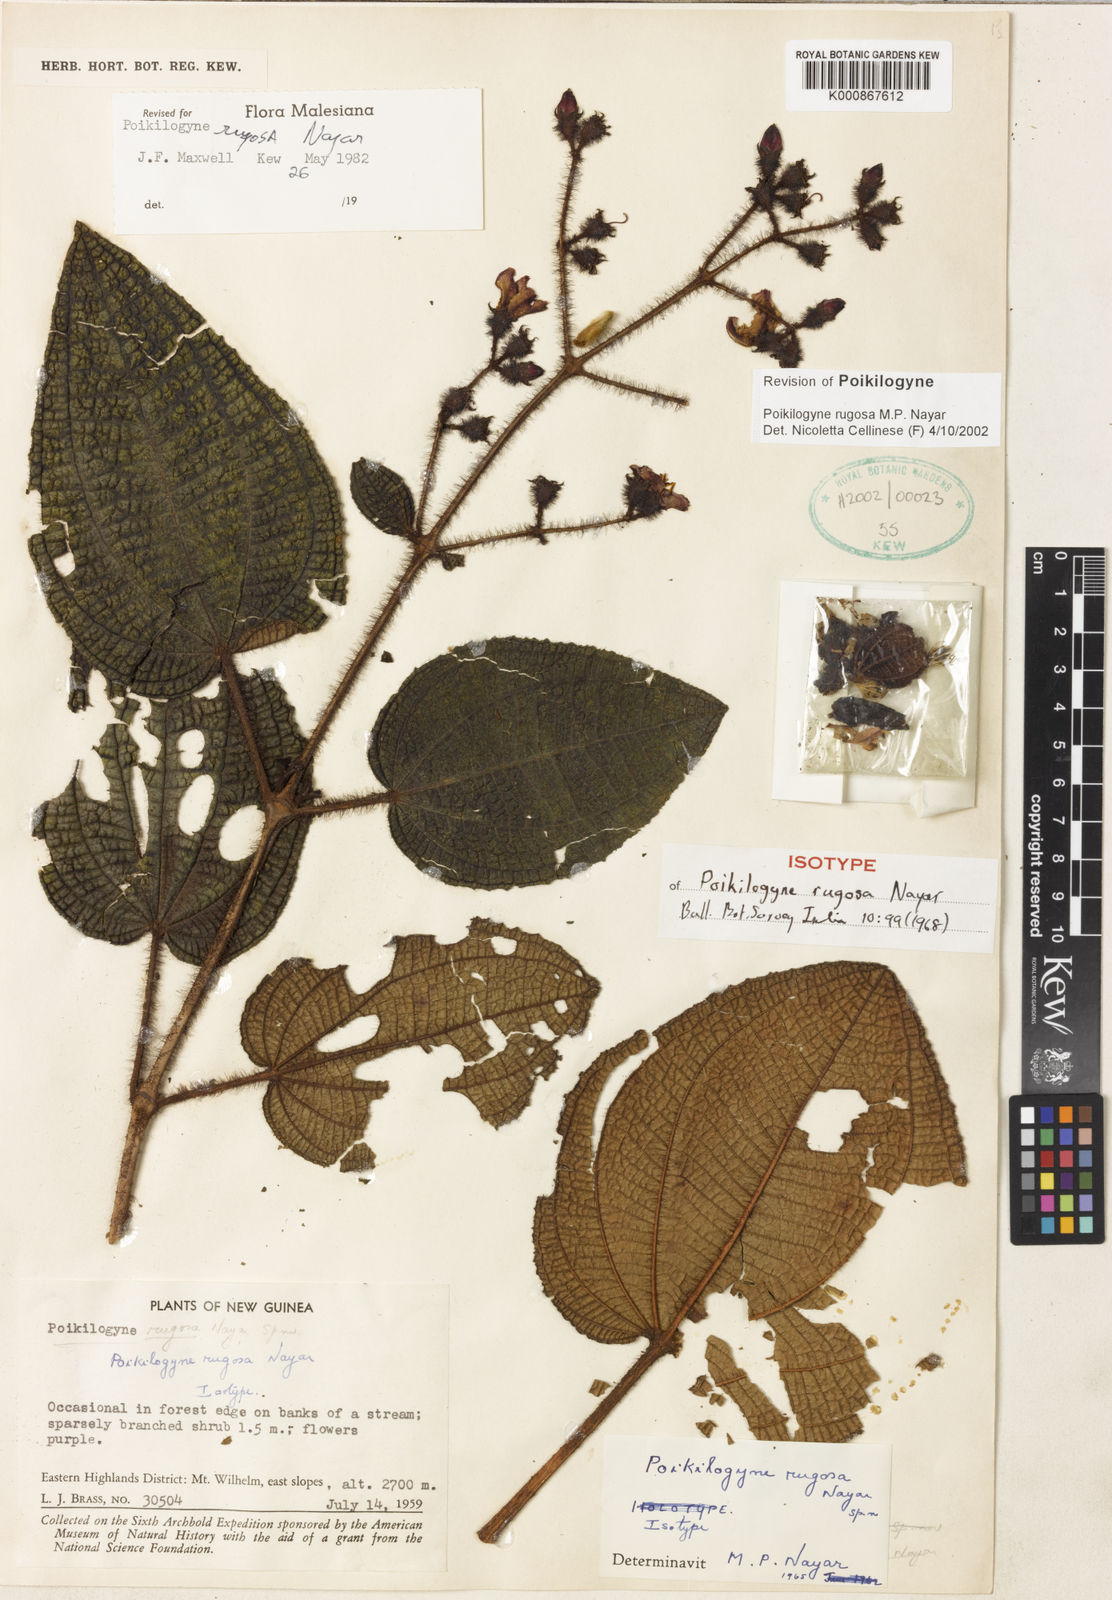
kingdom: Plantae
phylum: Tracheophyta
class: Magnoliopsida
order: Myrtales
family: Melastomataceae
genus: Poikilogyne
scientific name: Poikilogyne rugosa
